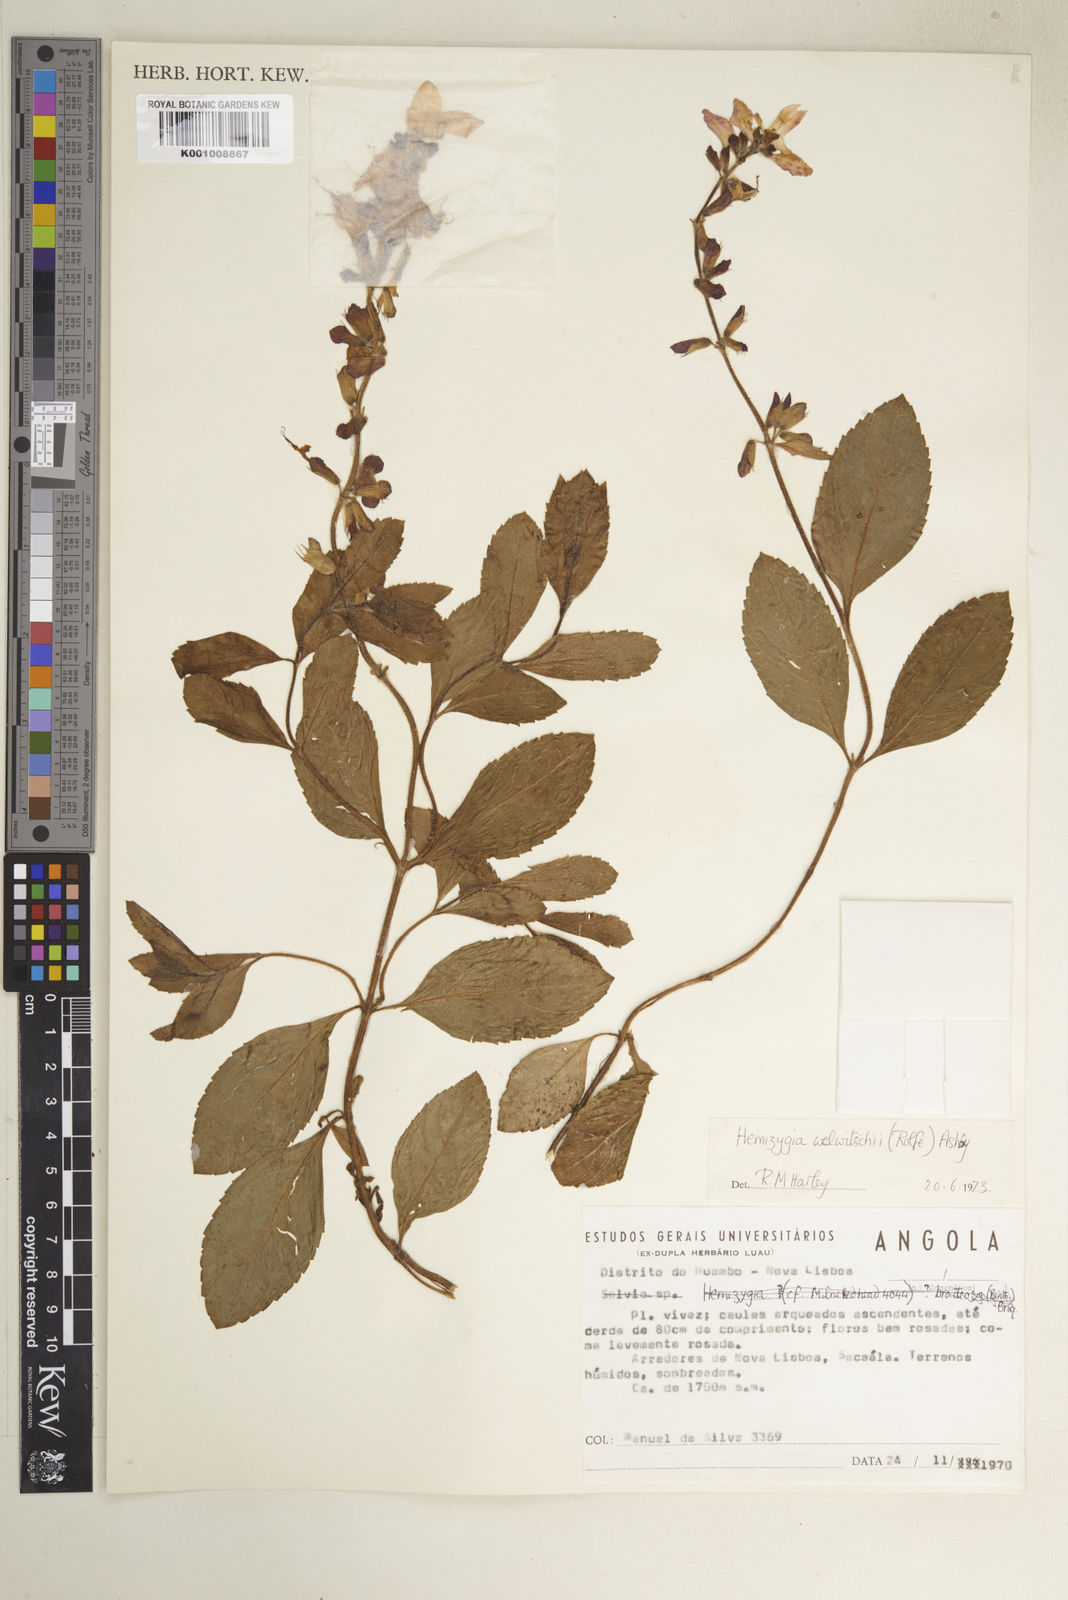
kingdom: Plantae
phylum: Tracheophyta
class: Magnoliopsida
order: Lamiales
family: Lamiaceae
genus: Syncolostemon
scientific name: Syncolostemon welwitschii
